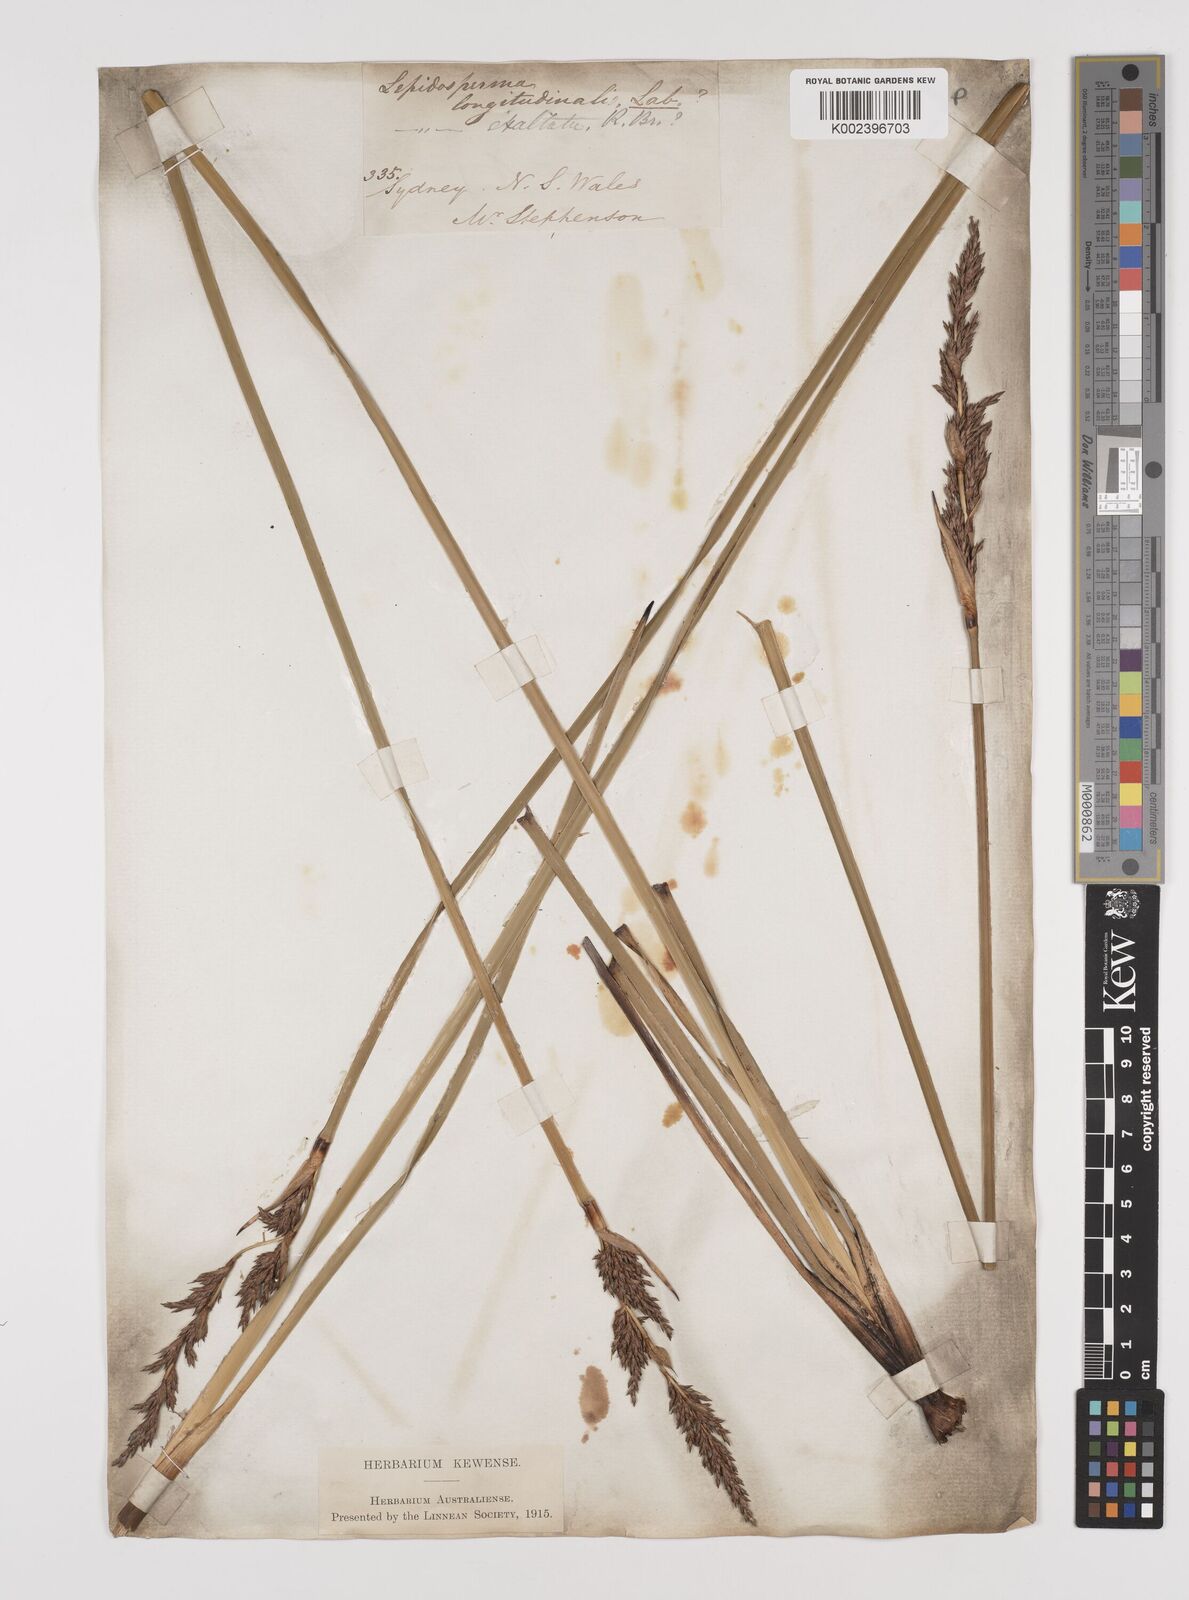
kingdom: Plantae
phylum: Tracheophyta
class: Liliopsida
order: Poales
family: Cyperaceae
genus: Lepidosperma
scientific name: Lepidosperma longitudinale
